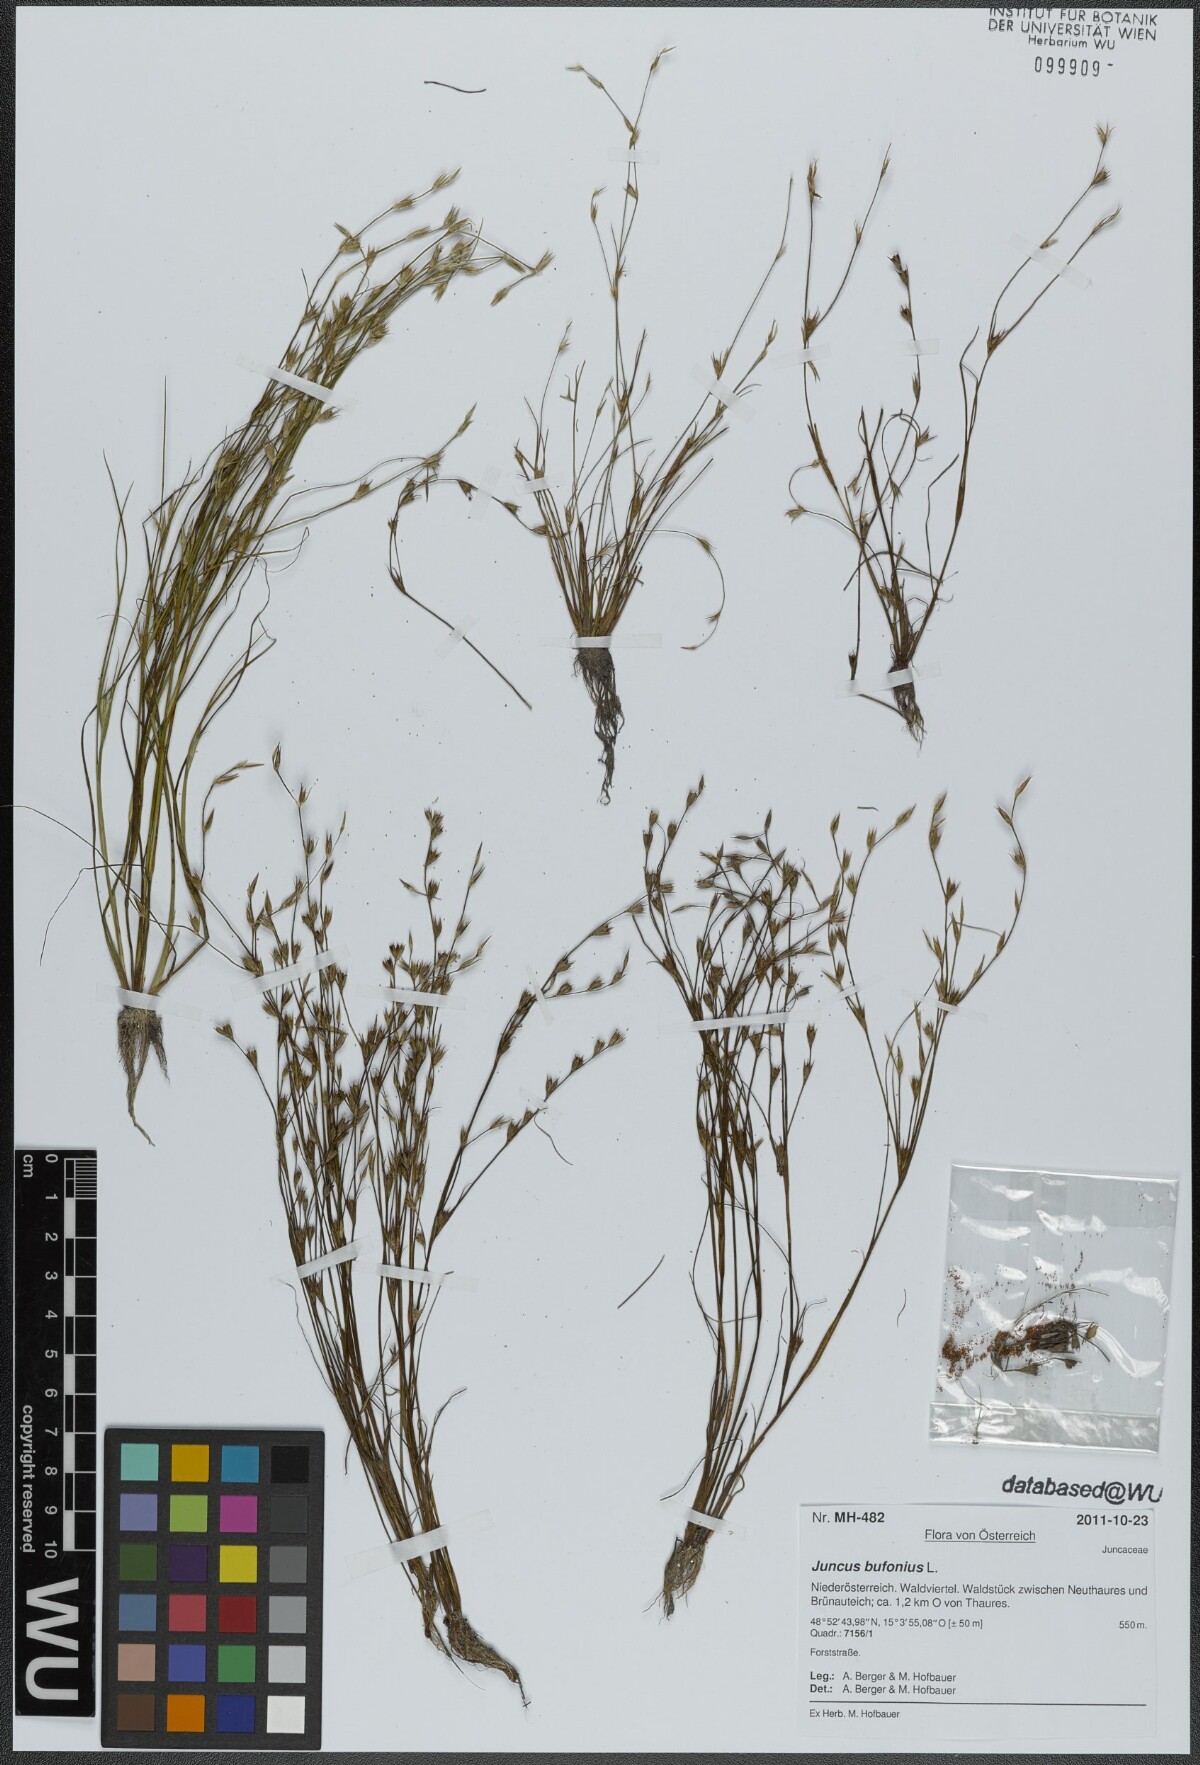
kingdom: Plantae
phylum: Tracheophyta
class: Liliopsida
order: Poales
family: Juncaceae
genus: Juncus
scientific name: Juncus bufonius
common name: Toad rush
